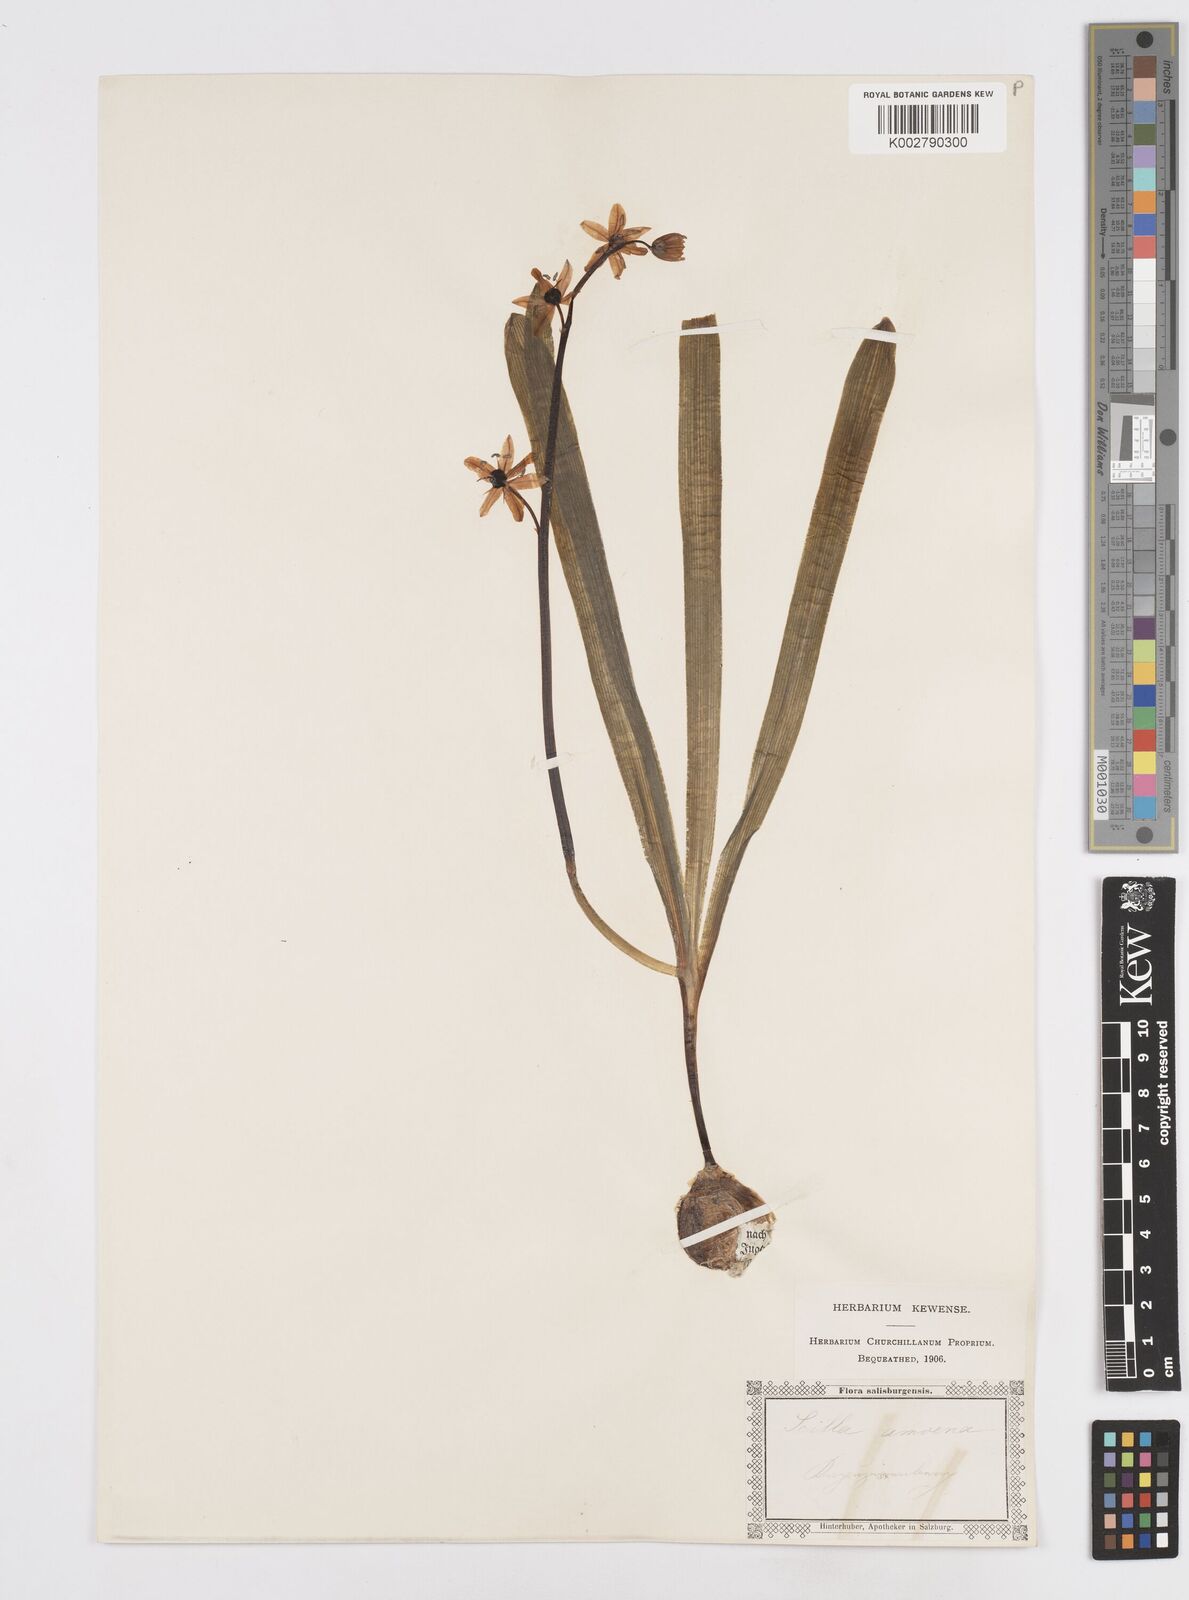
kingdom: Plantae
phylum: Tracheophyta
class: Liliopsida
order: Asparagales
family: Asparagaceae
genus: Scilla
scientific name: Scilla amoena
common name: Star-hyacinth
